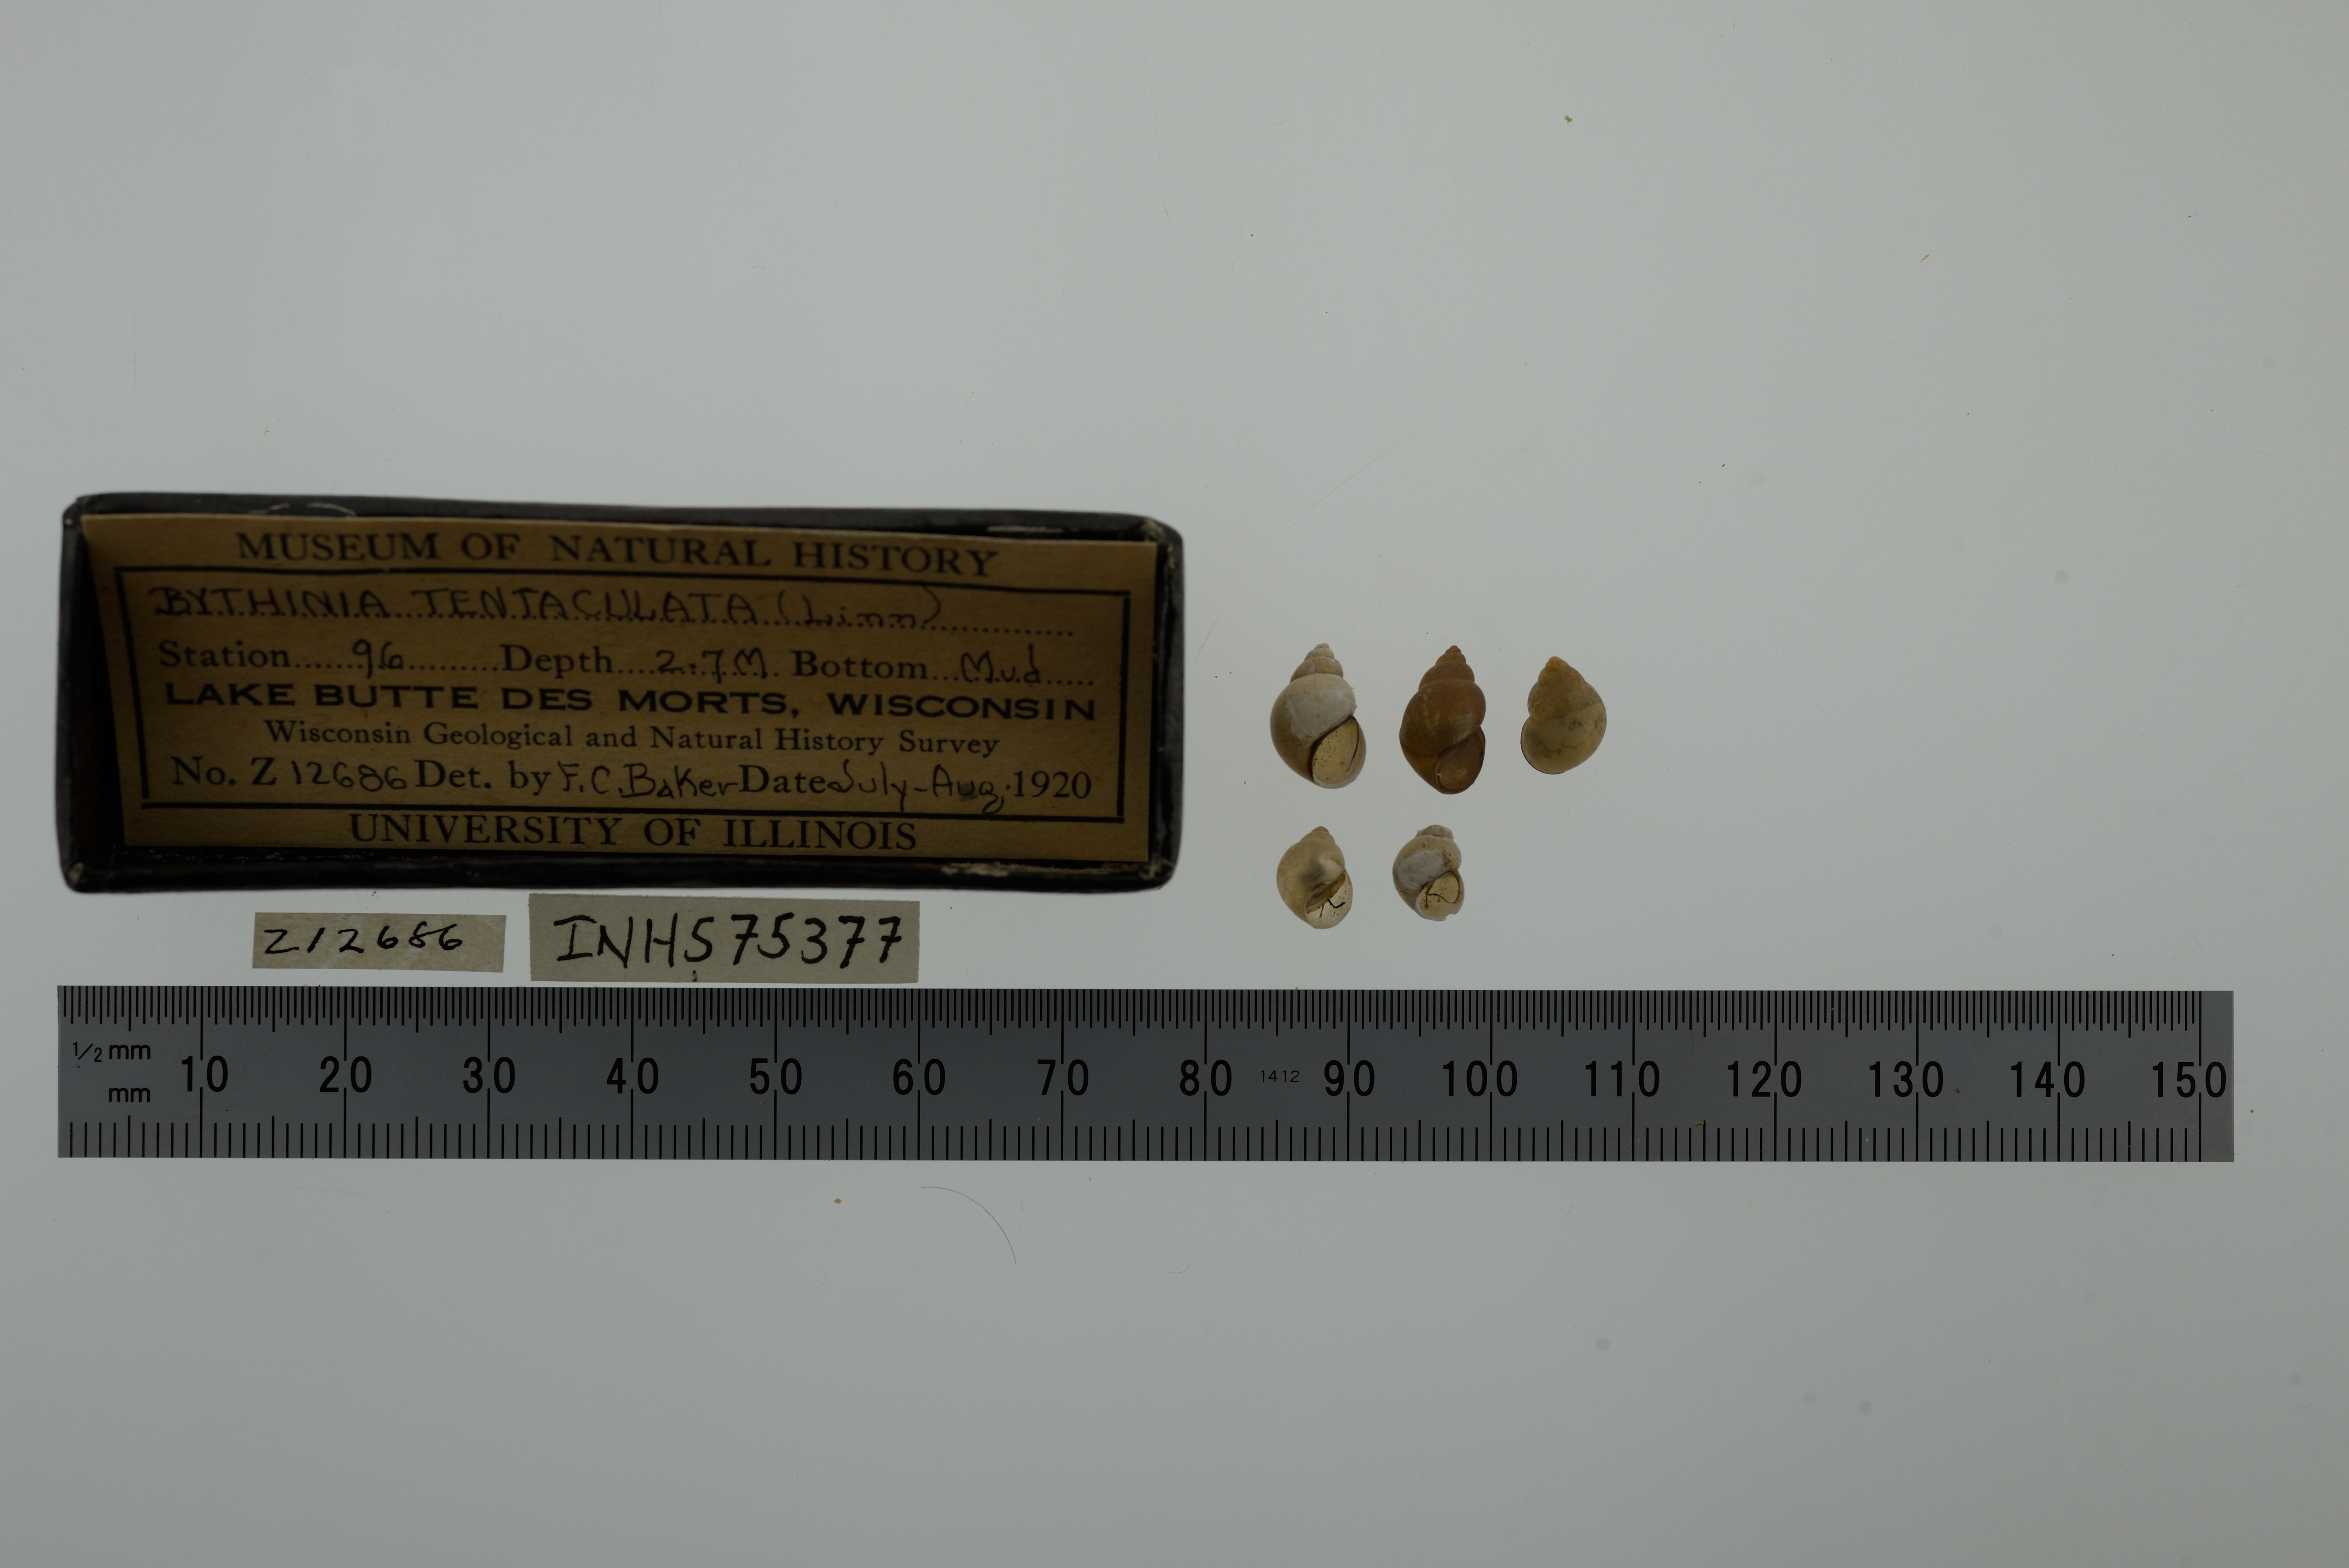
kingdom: Animalia
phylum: Mollusca
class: Gastropoda
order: Littorinimorpha
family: Bithyniidae
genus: Bithynia
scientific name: Bithynia tentaculata
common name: Common bithynia
